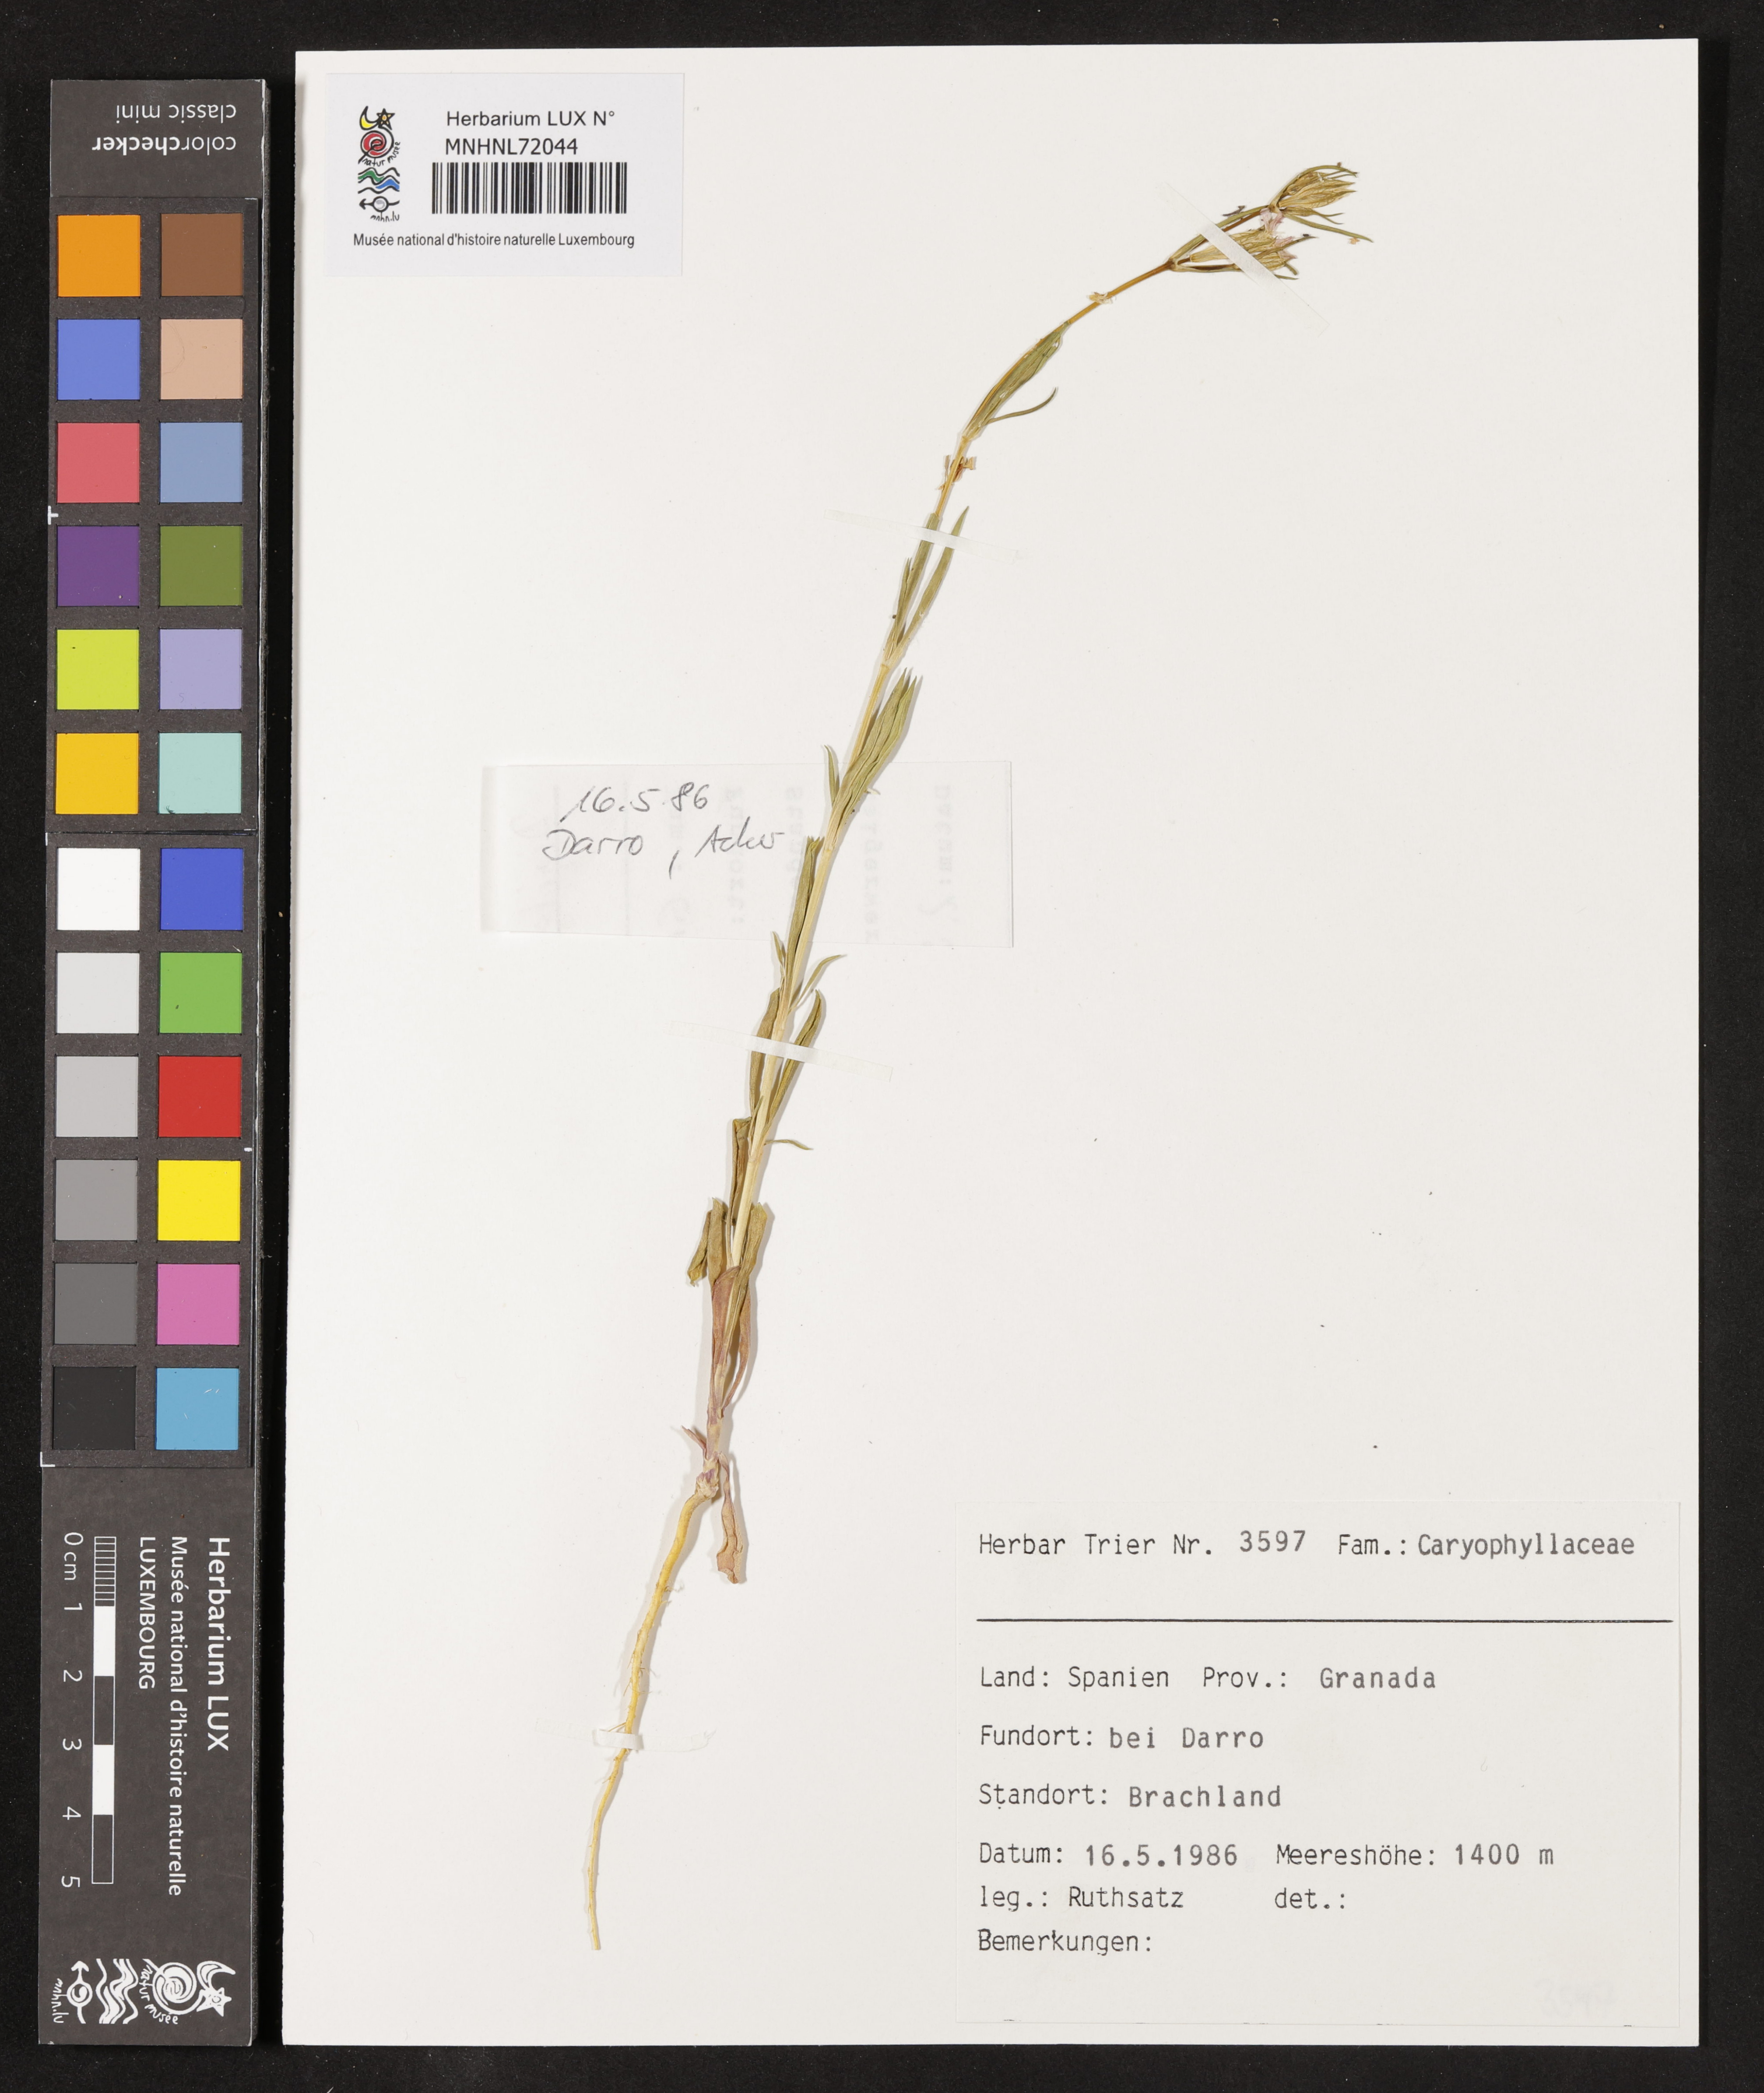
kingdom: Plantae
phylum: Tracheophyta
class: Magnoliopsida
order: Caryophyllales
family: Caryophyllaceae
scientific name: Caryophyllaceae
